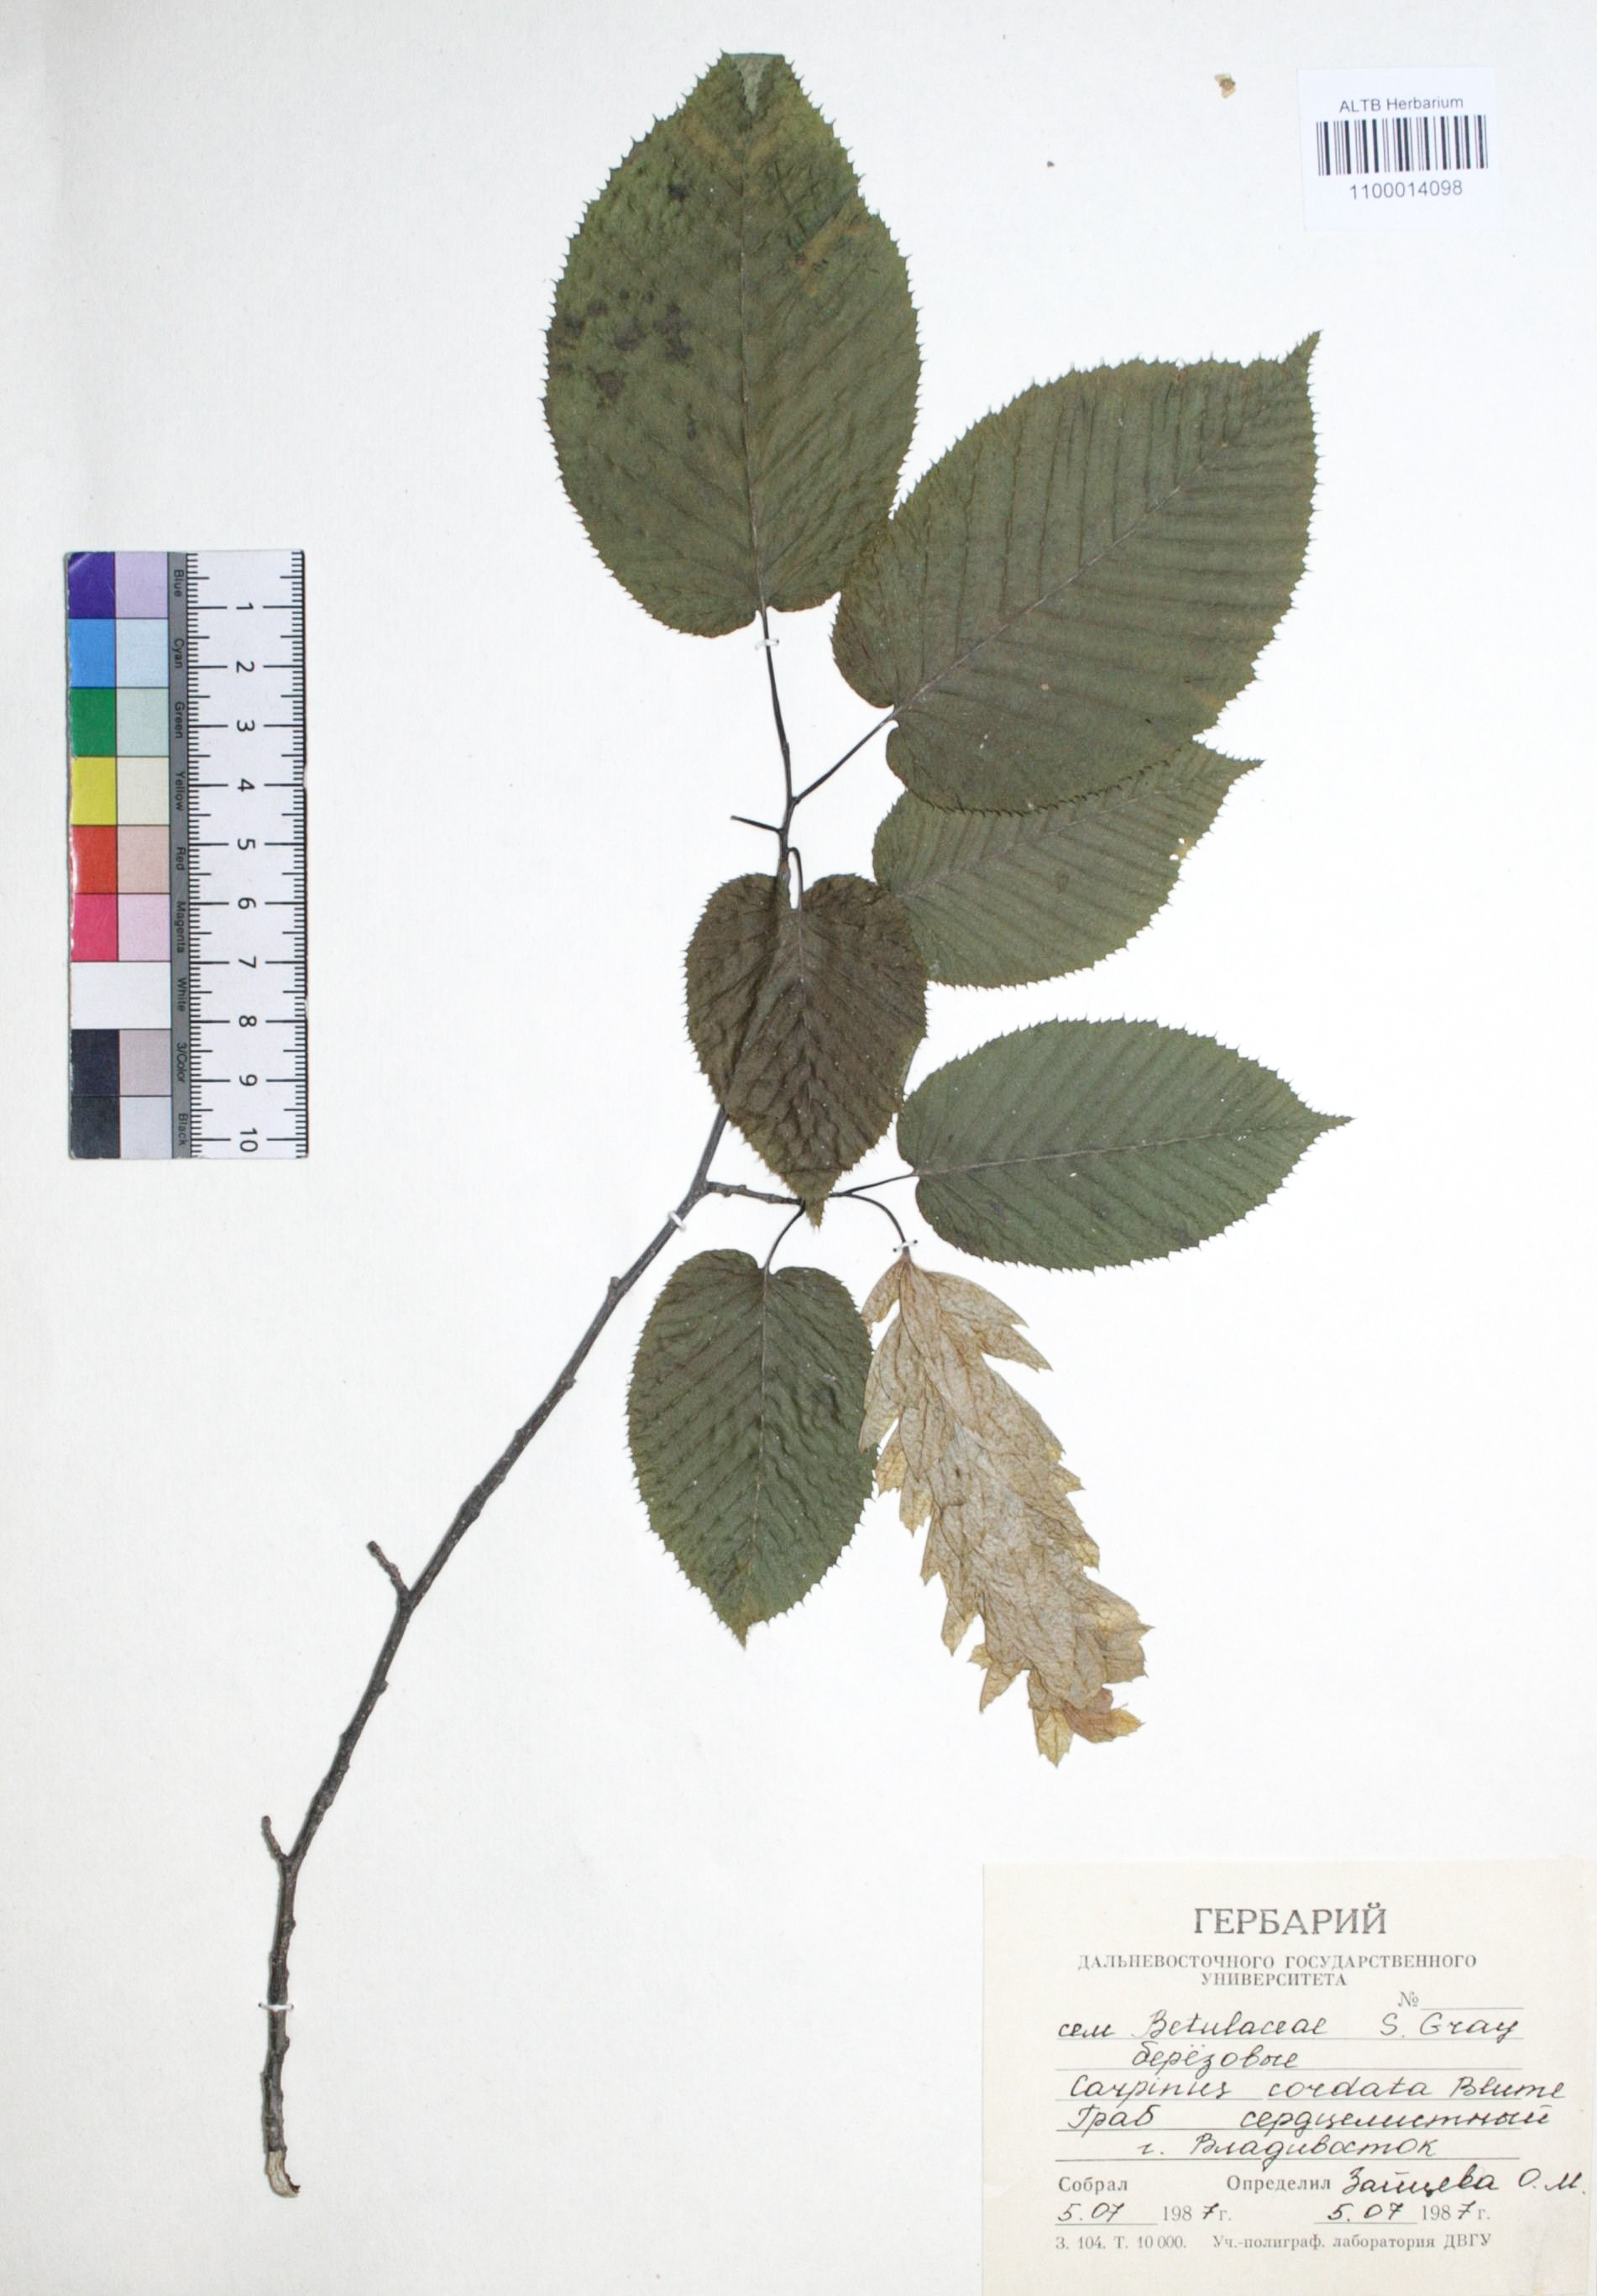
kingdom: Plantae
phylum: Tracheophyta
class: Magnoliopsida
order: Fagales
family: Betulaceae
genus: Carpinus
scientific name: Carpinus cordata
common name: Sawa hornbeam
